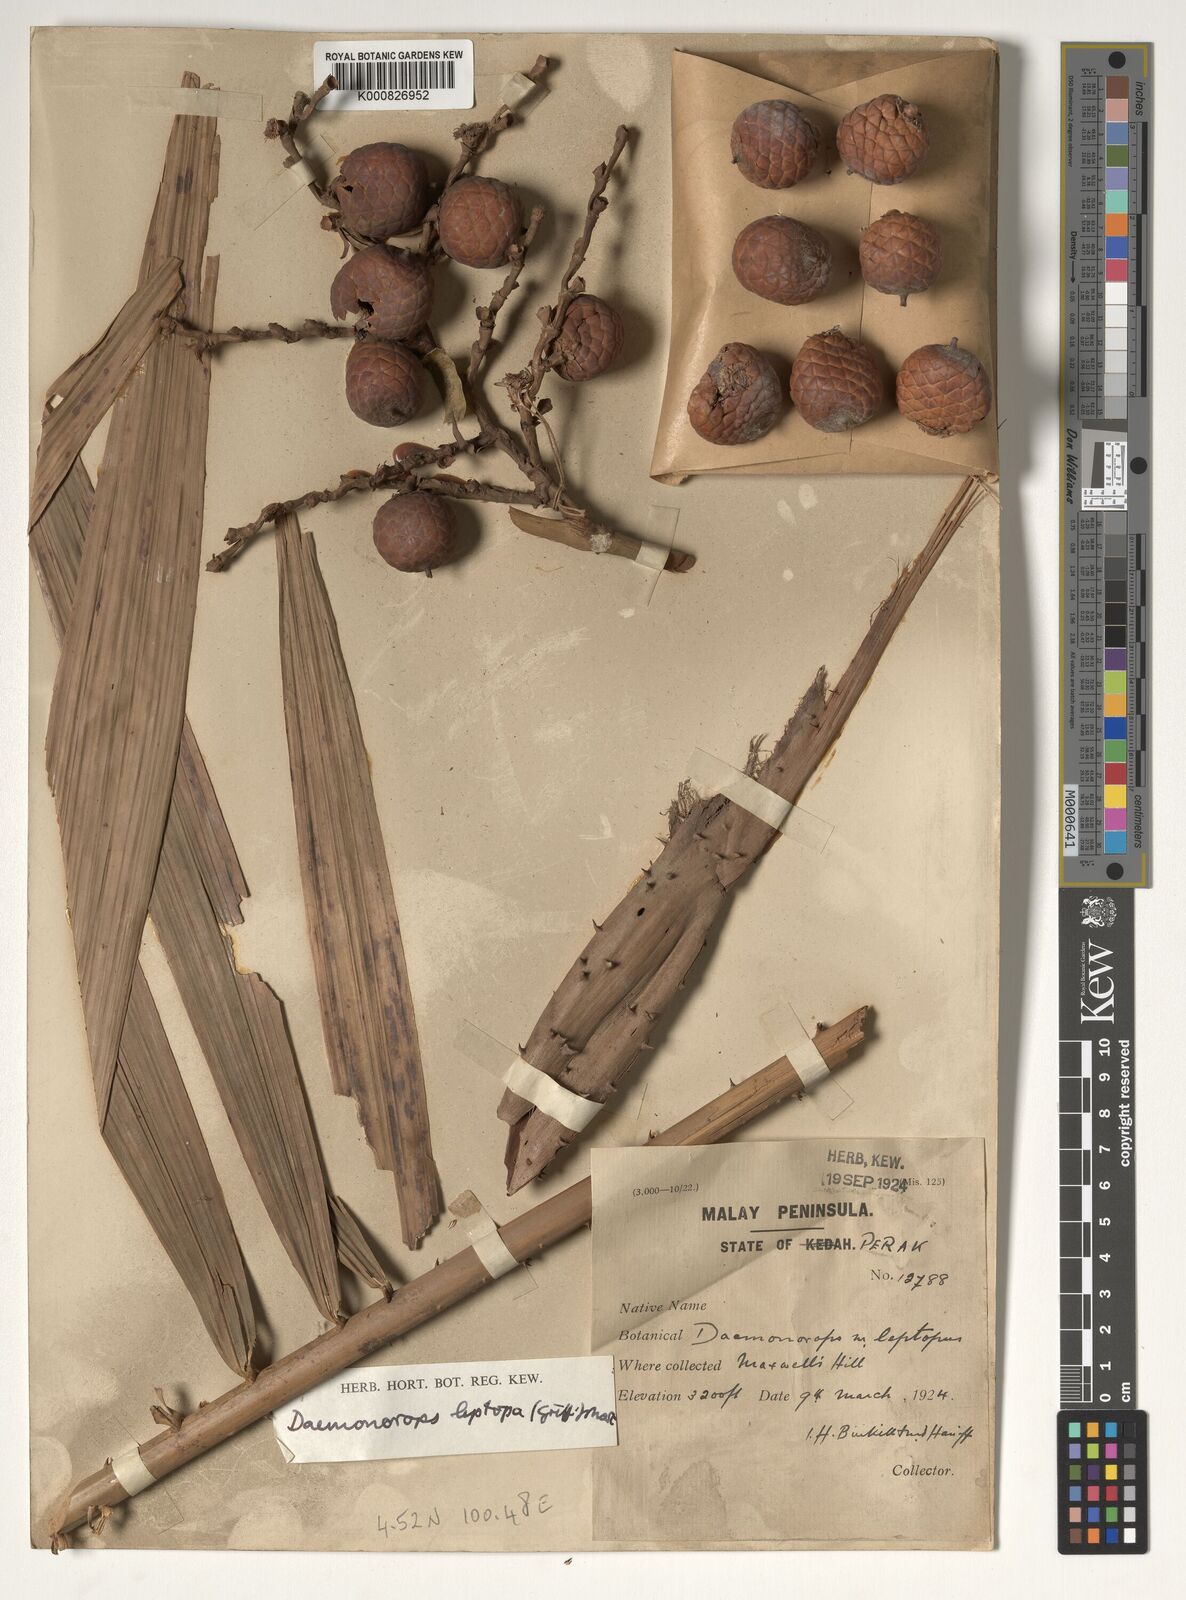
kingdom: Plantae
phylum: Tracheophyta
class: Liliopsida
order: Arecales
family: Arecaceae
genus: Calamus
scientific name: Calamus leptopus
